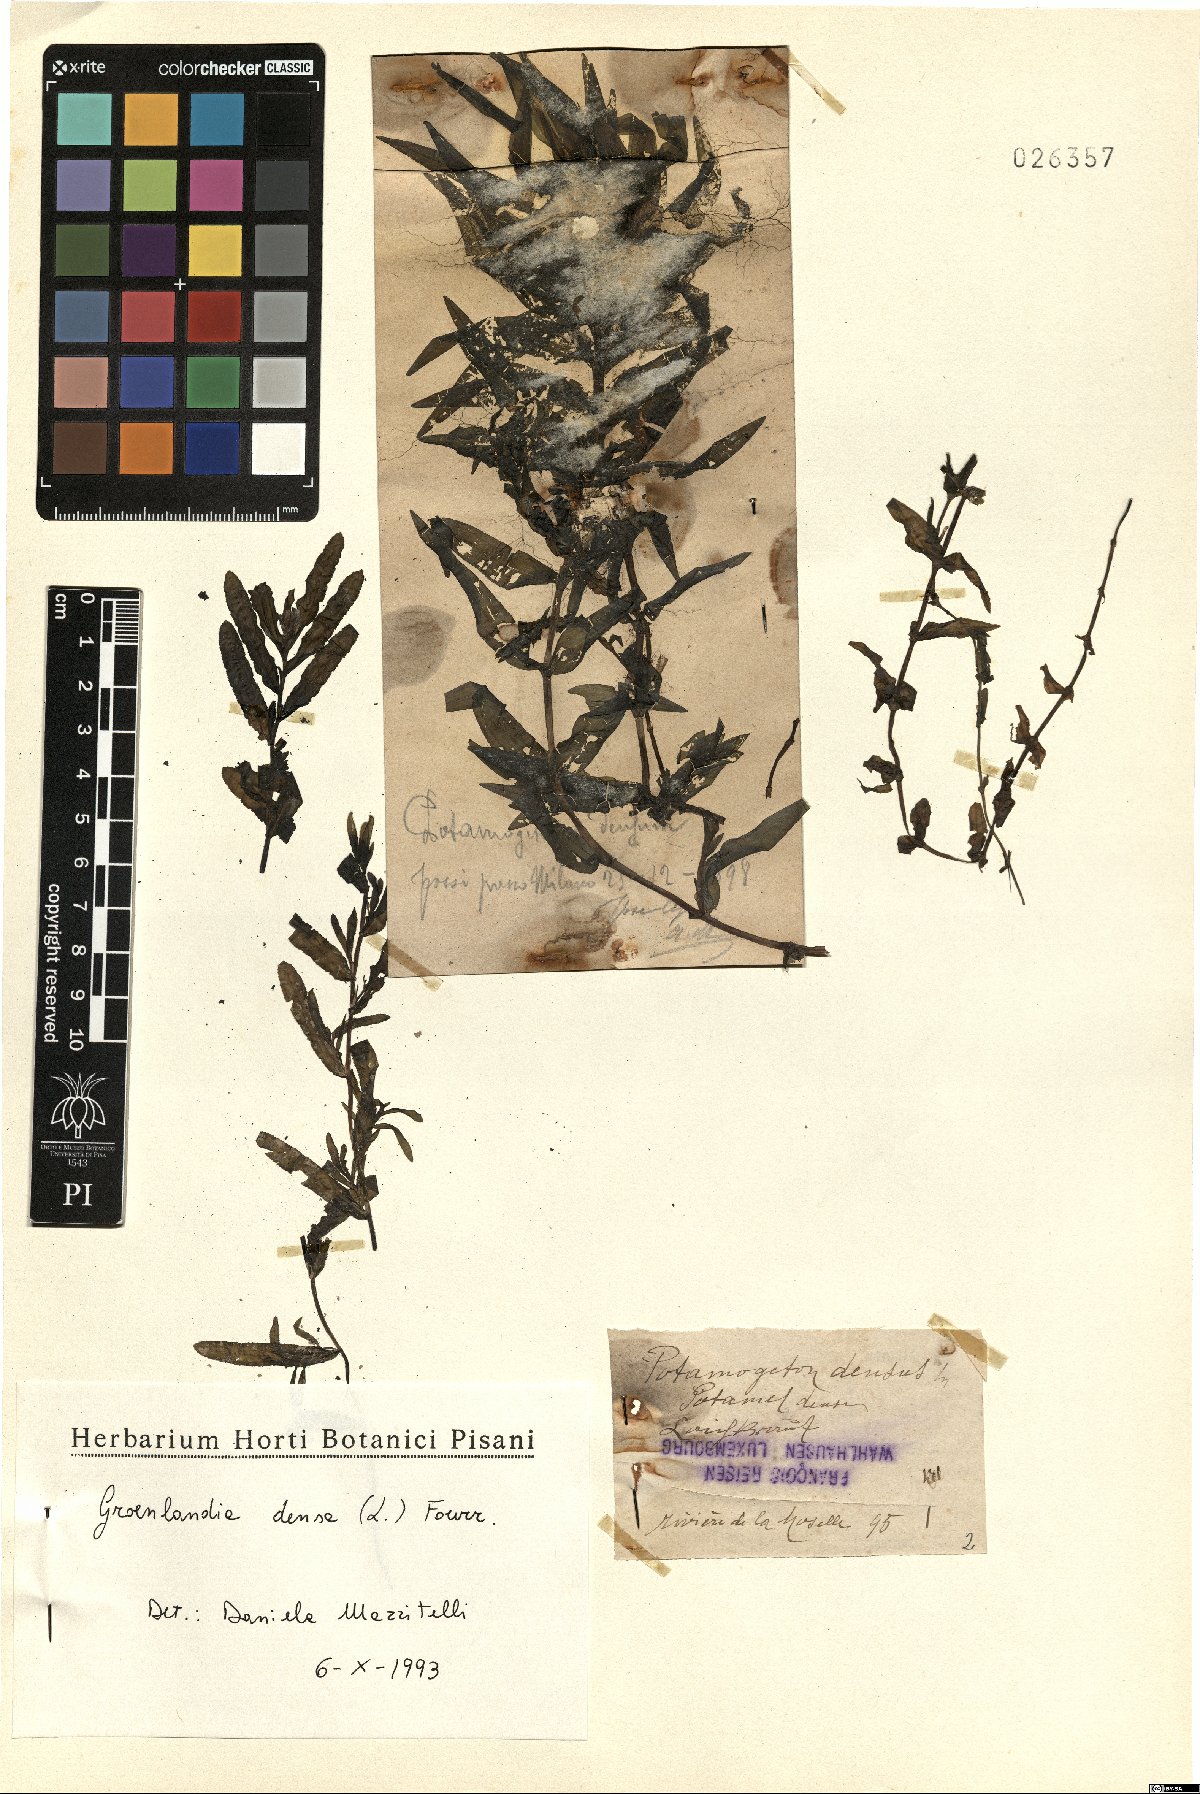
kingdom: Plantae
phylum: Tracheophyta
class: Liliopsida
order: Alismatales
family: Potamogetonaceae
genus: Groenlandia
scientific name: Groenlandia densa
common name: Opposite-leaved pondweed
